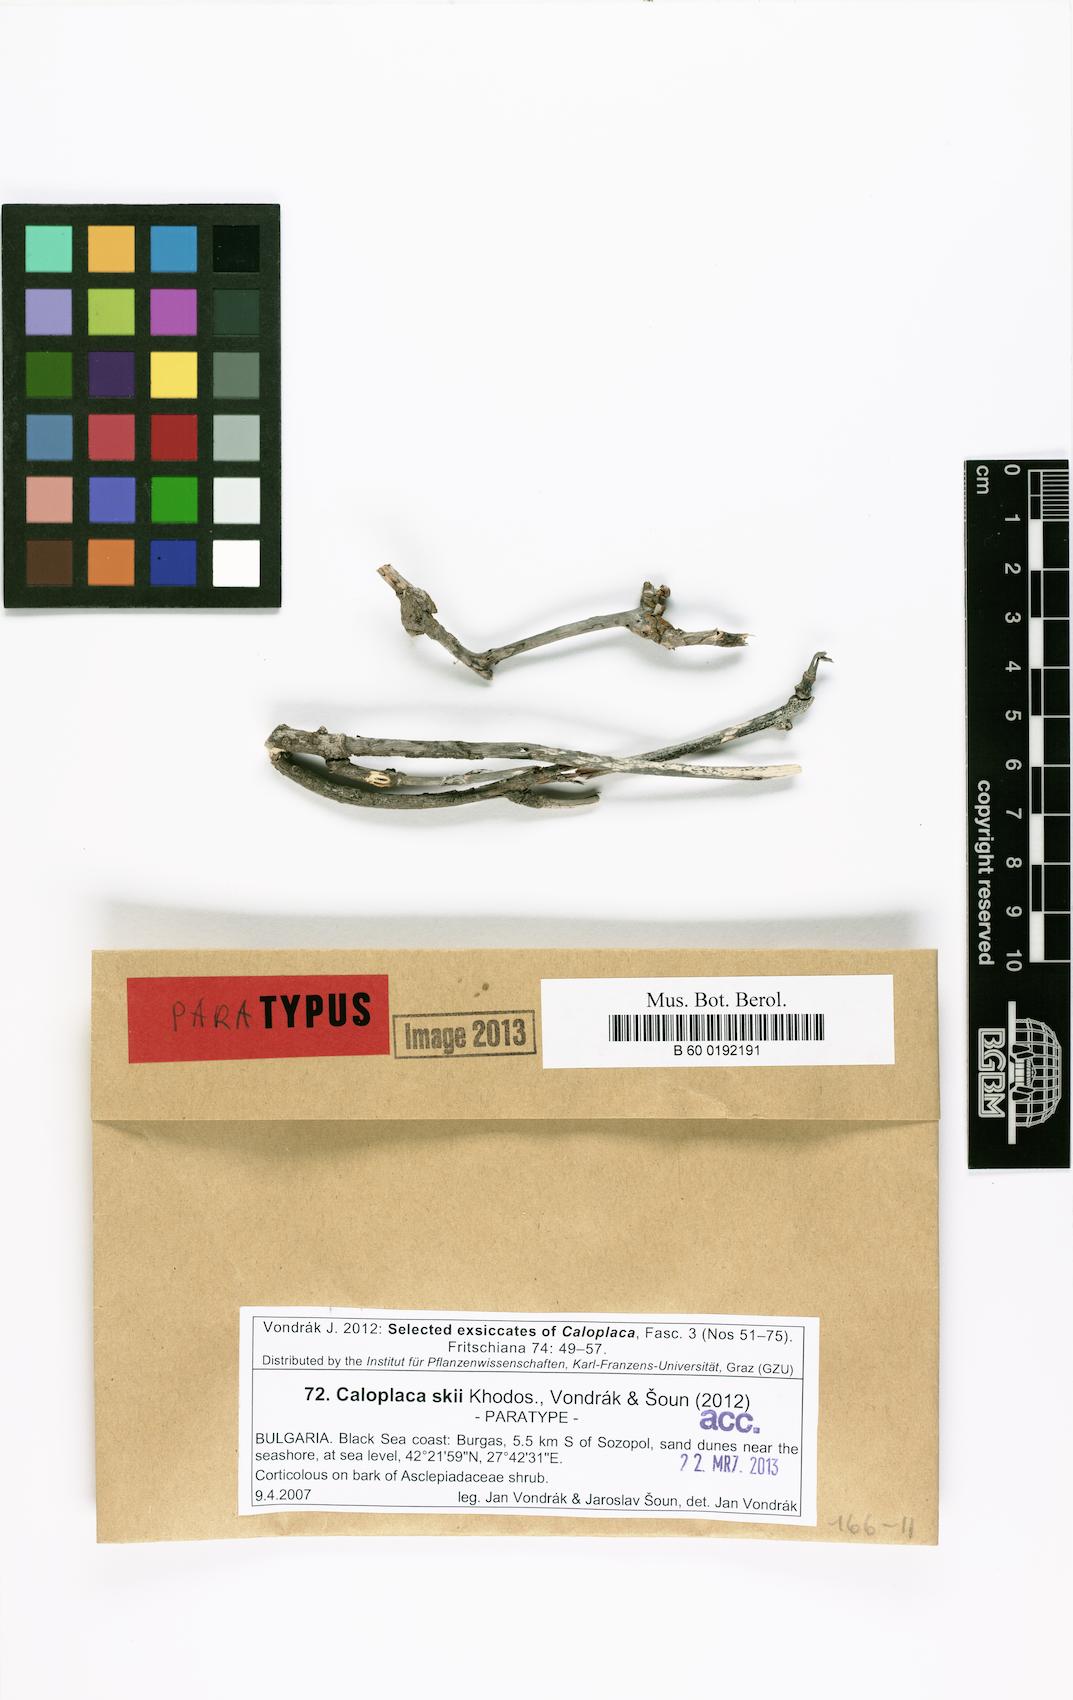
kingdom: Fungi
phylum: Ascomycota
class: Lecanoromycetes
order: Teloschistales
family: Teloschistaceae
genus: Fominiella
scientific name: Fominiella skii
